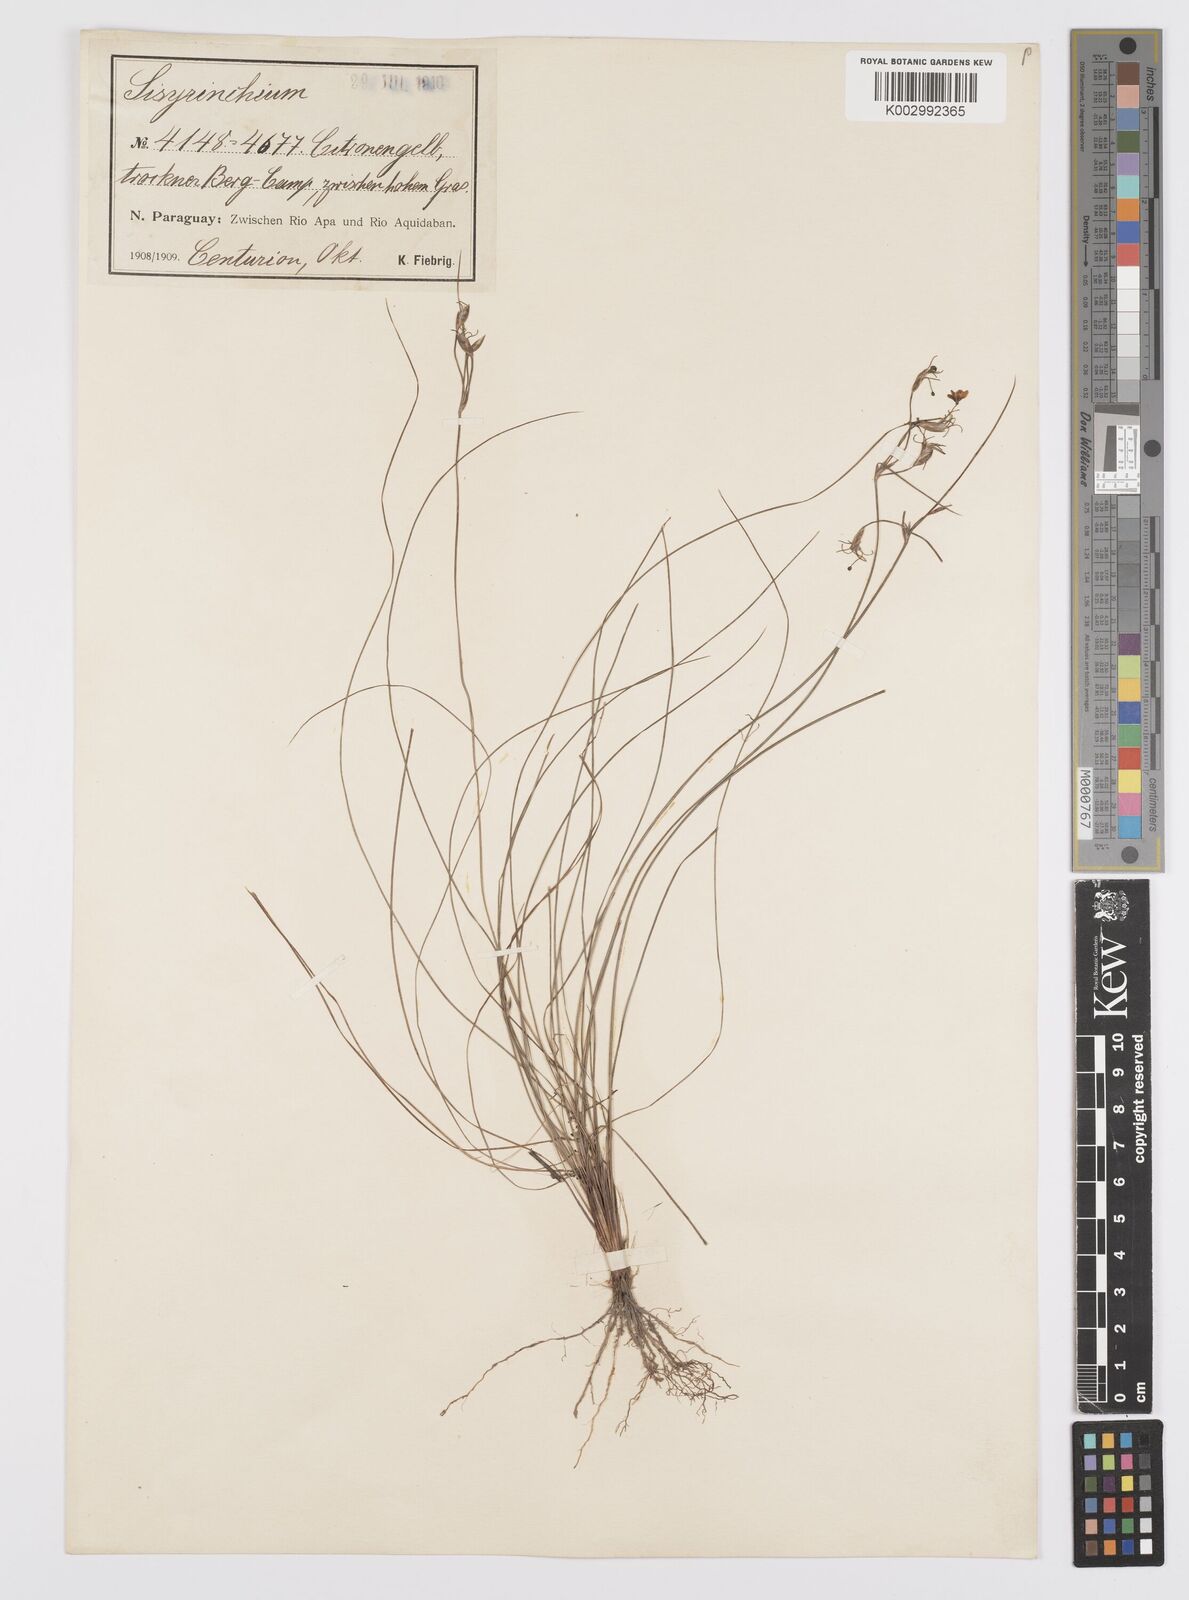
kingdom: Plantae
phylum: Tracheophyta
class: Liliopsida
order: Asparagales
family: Iridaceae
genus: Sisyrinchium
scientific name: Sisyrinchium commutatum
